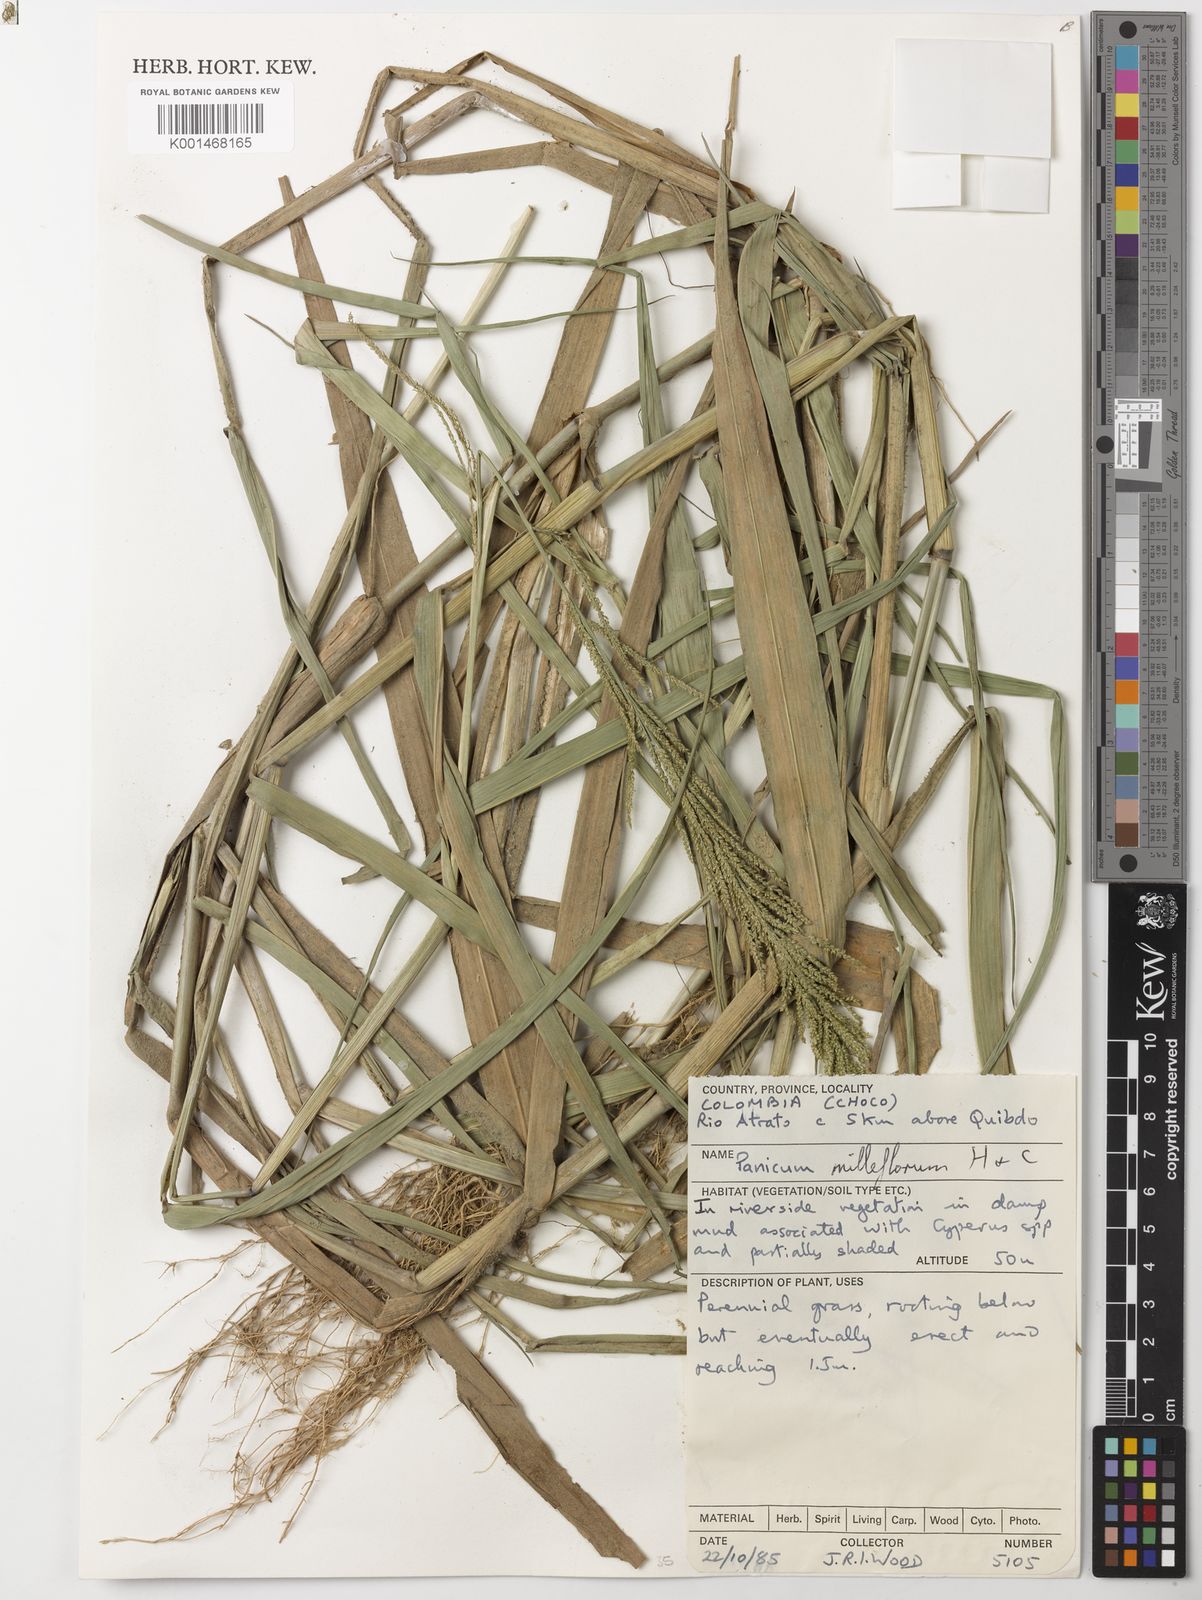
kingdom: Plantae
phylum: Tracheophyta
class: Liliopsida
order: Poales
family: Poaceae
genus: Rugoloa
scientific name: Rugoloa pilosa
